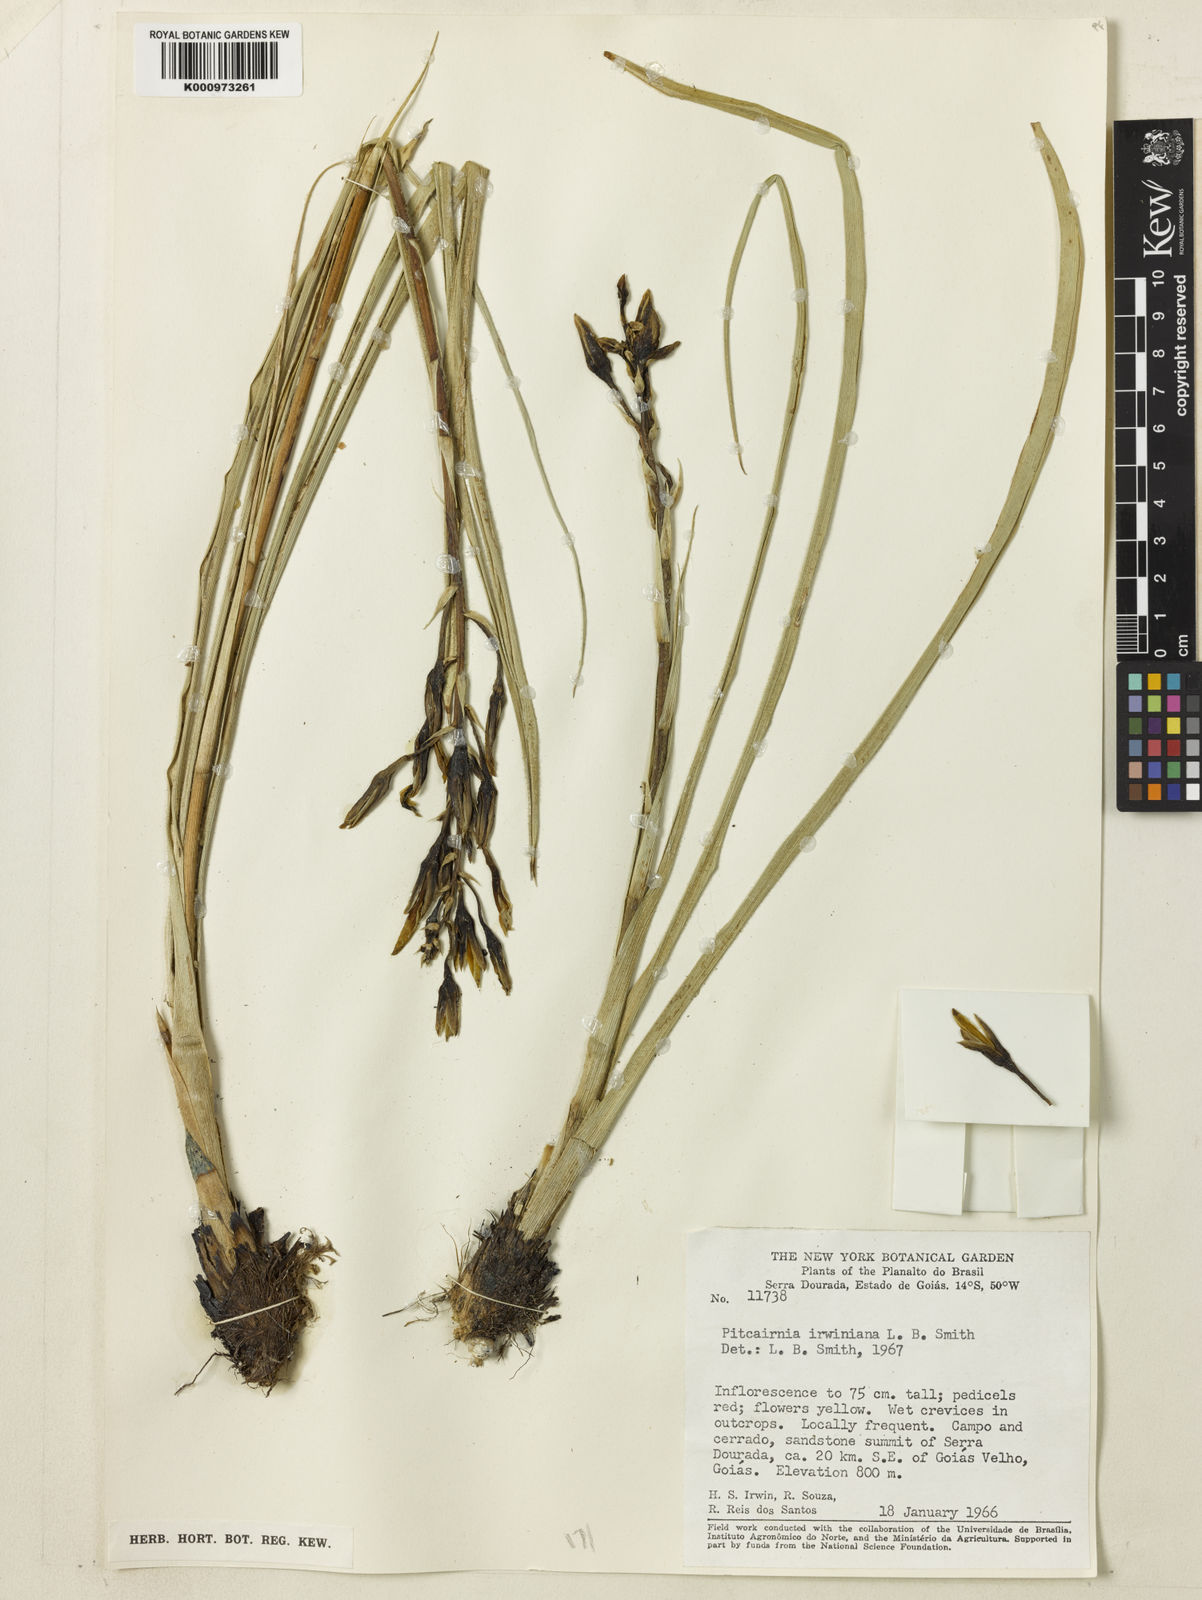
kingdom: Plantae
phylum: Tracheophyta
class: Liliopsida
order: Poales
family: Bromeliaceae
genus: Pitcairnia
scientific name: Pitcairnia
